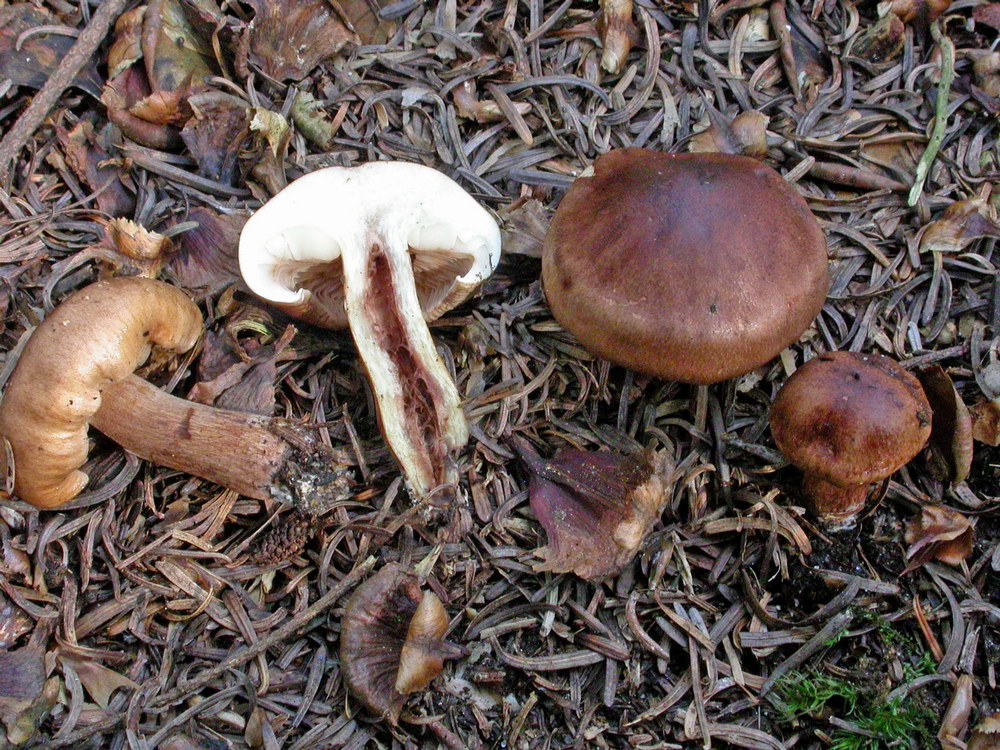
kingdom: Fungi
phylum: Basidiomycota
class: Agaricomycetes
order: Agaricales
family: Tricholomataceae
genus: Tricholoma
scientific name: Tricholoma pessundatum
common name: dråbeplettet ridderhat
